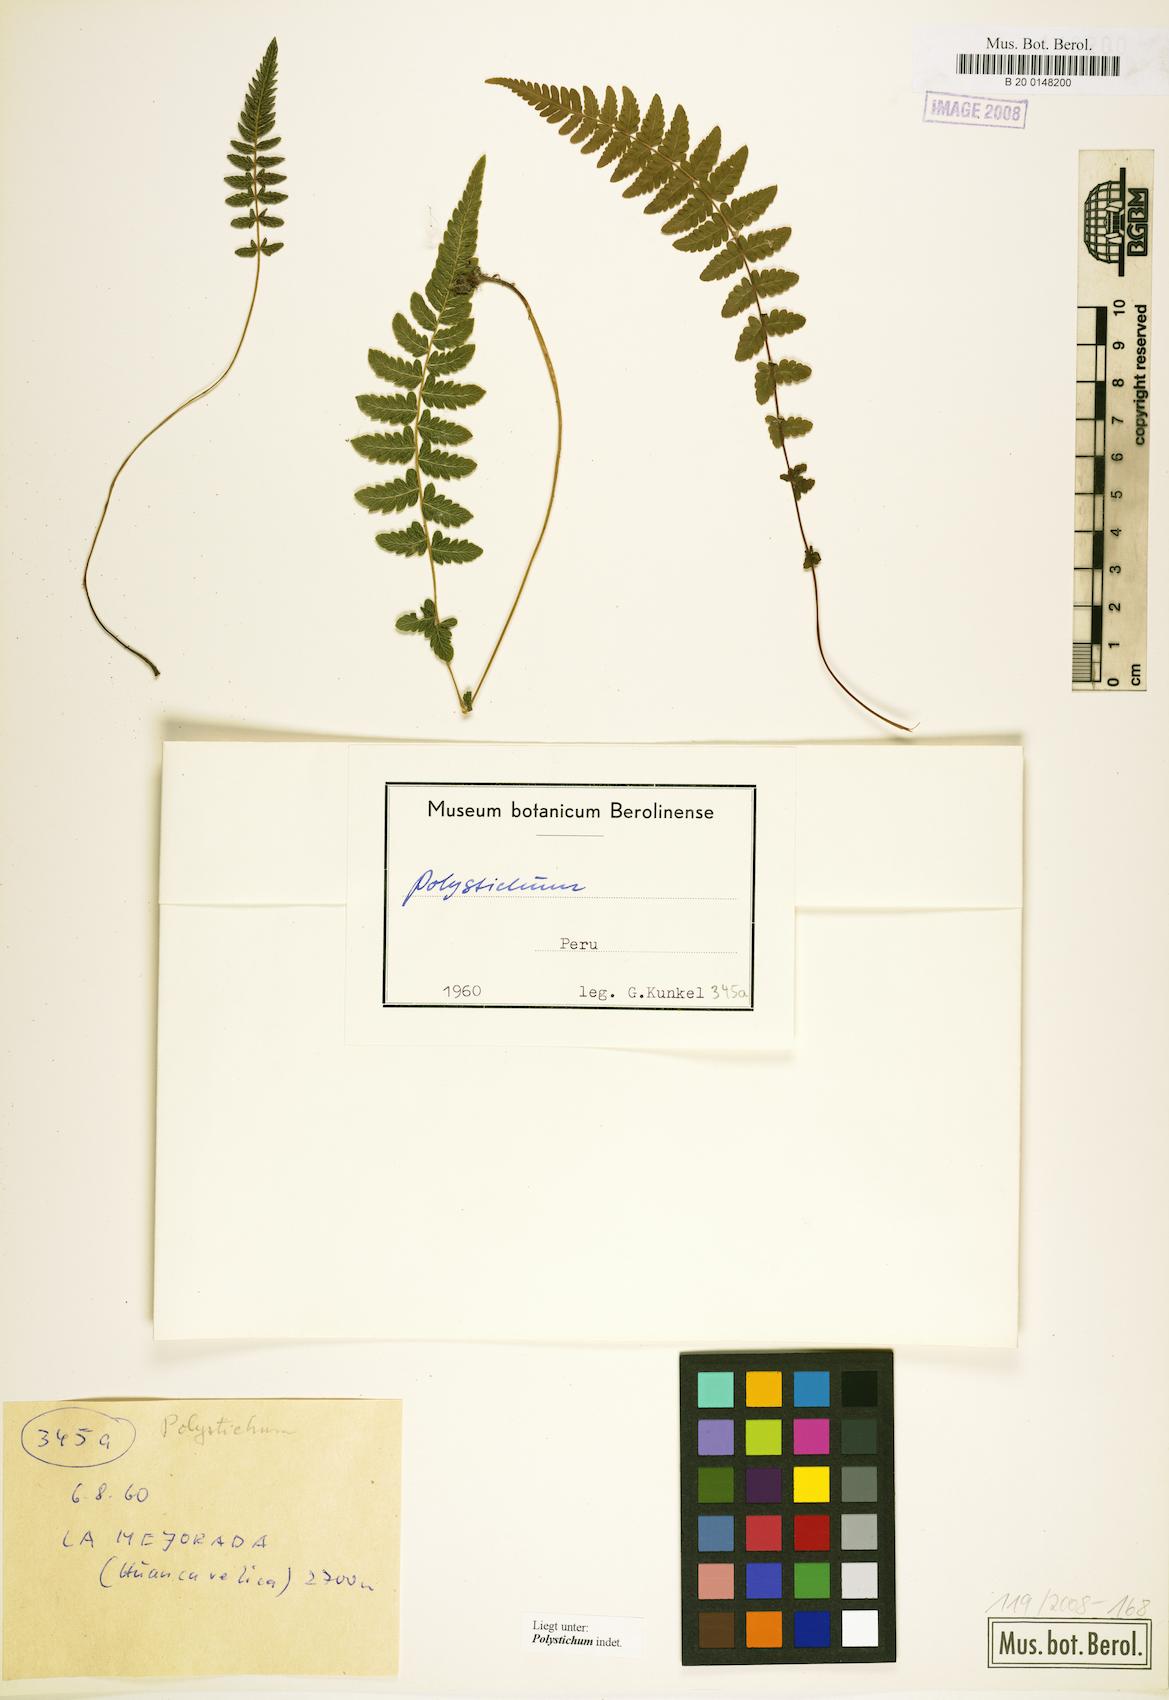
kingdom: Plantae
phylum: Tracheophyta
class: Polypodiopsida
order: Polypodiales
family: Dryopteridaceae
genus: Polystichum
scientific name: Polystichum
